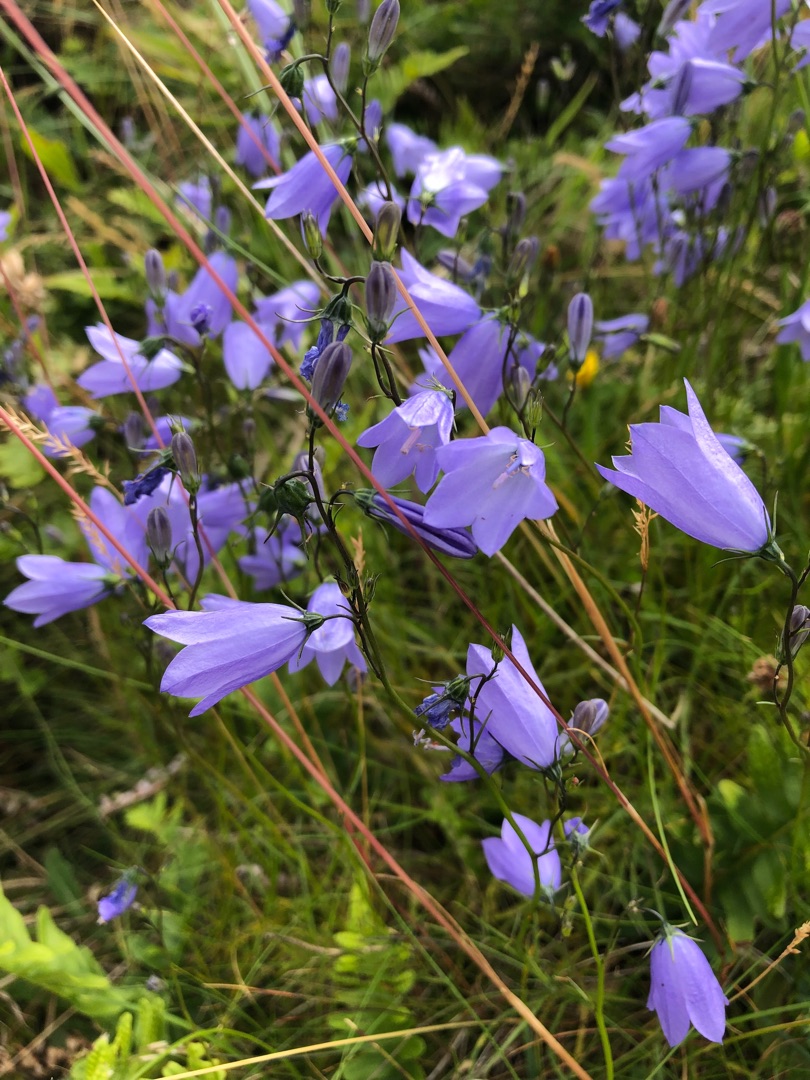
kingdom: Plantae
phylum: Tracheophyta
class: Magnoliopsida
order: Asterales
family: Campanulaceae
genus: Campanula
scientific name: Campanula rotundifolia
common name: Liden klokke
